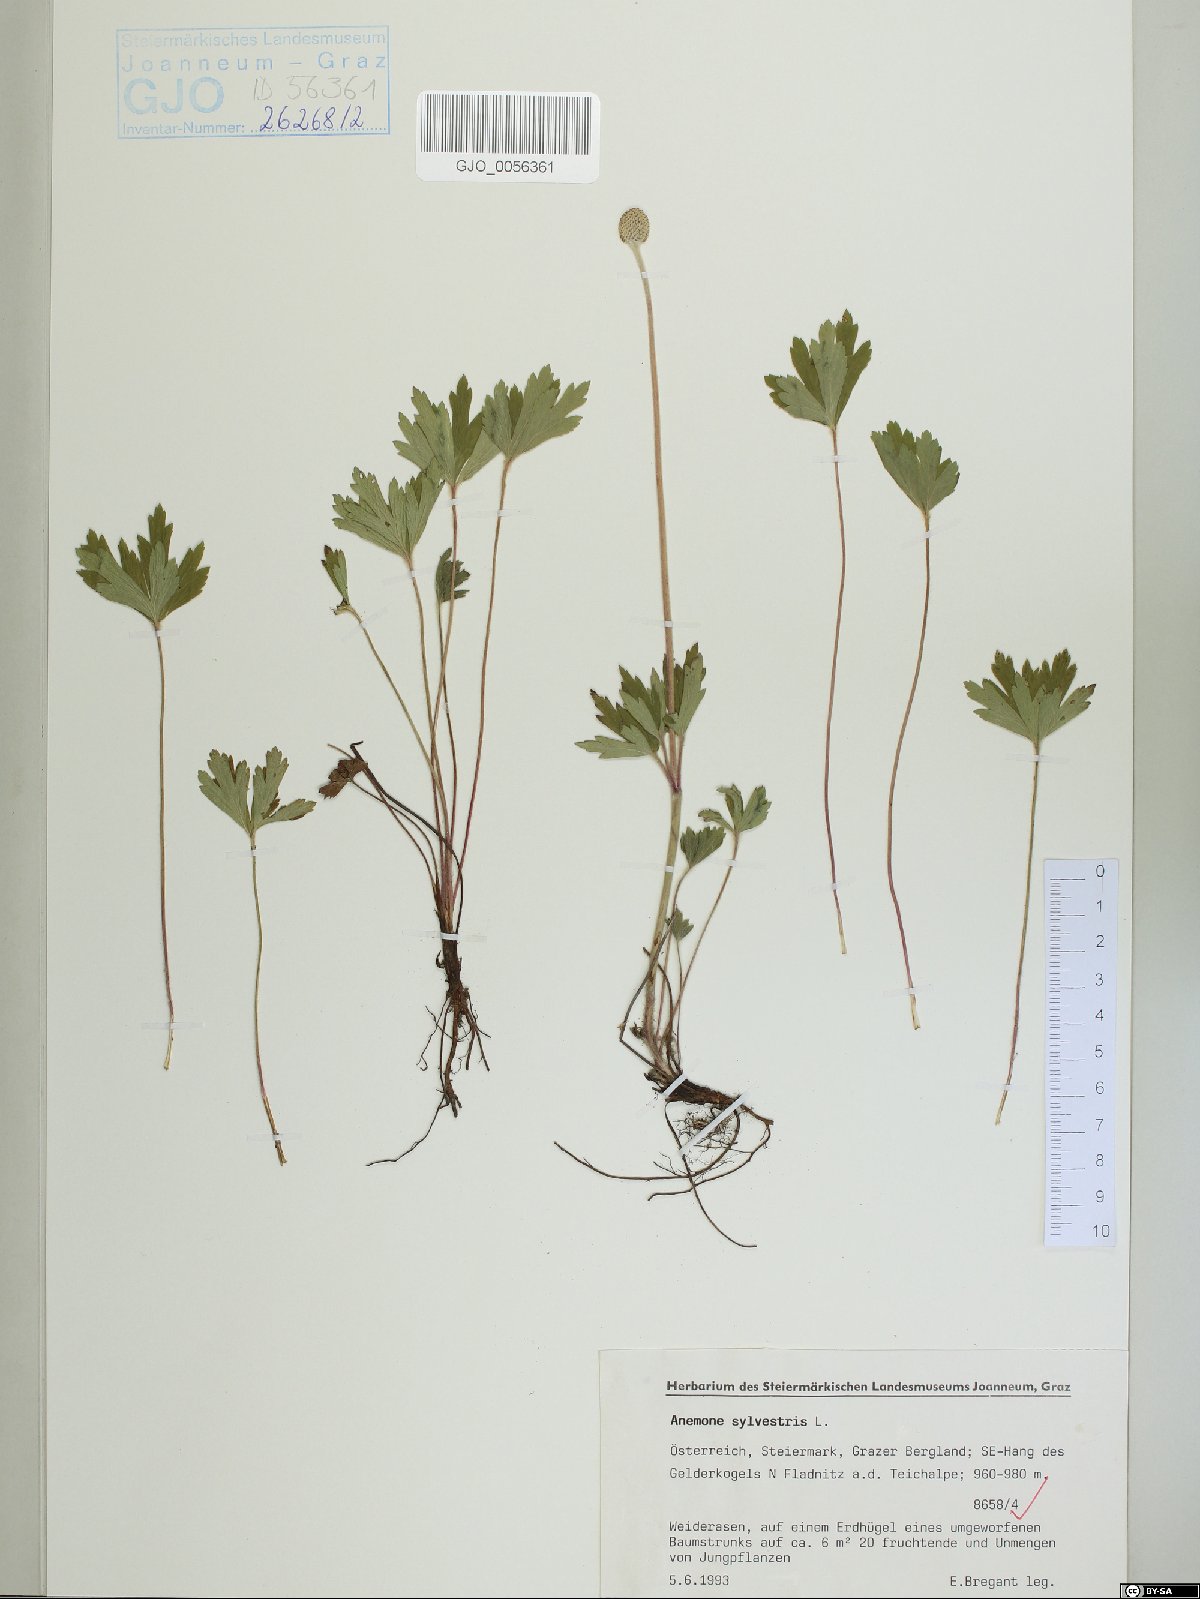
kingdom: Plantae
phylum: Tracheophyta
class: Magnoliopsida
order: Ranunculales
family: Ranunculaceae
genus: Anemone
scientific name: Anemone sylvestris
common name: Snowdrop anemone
